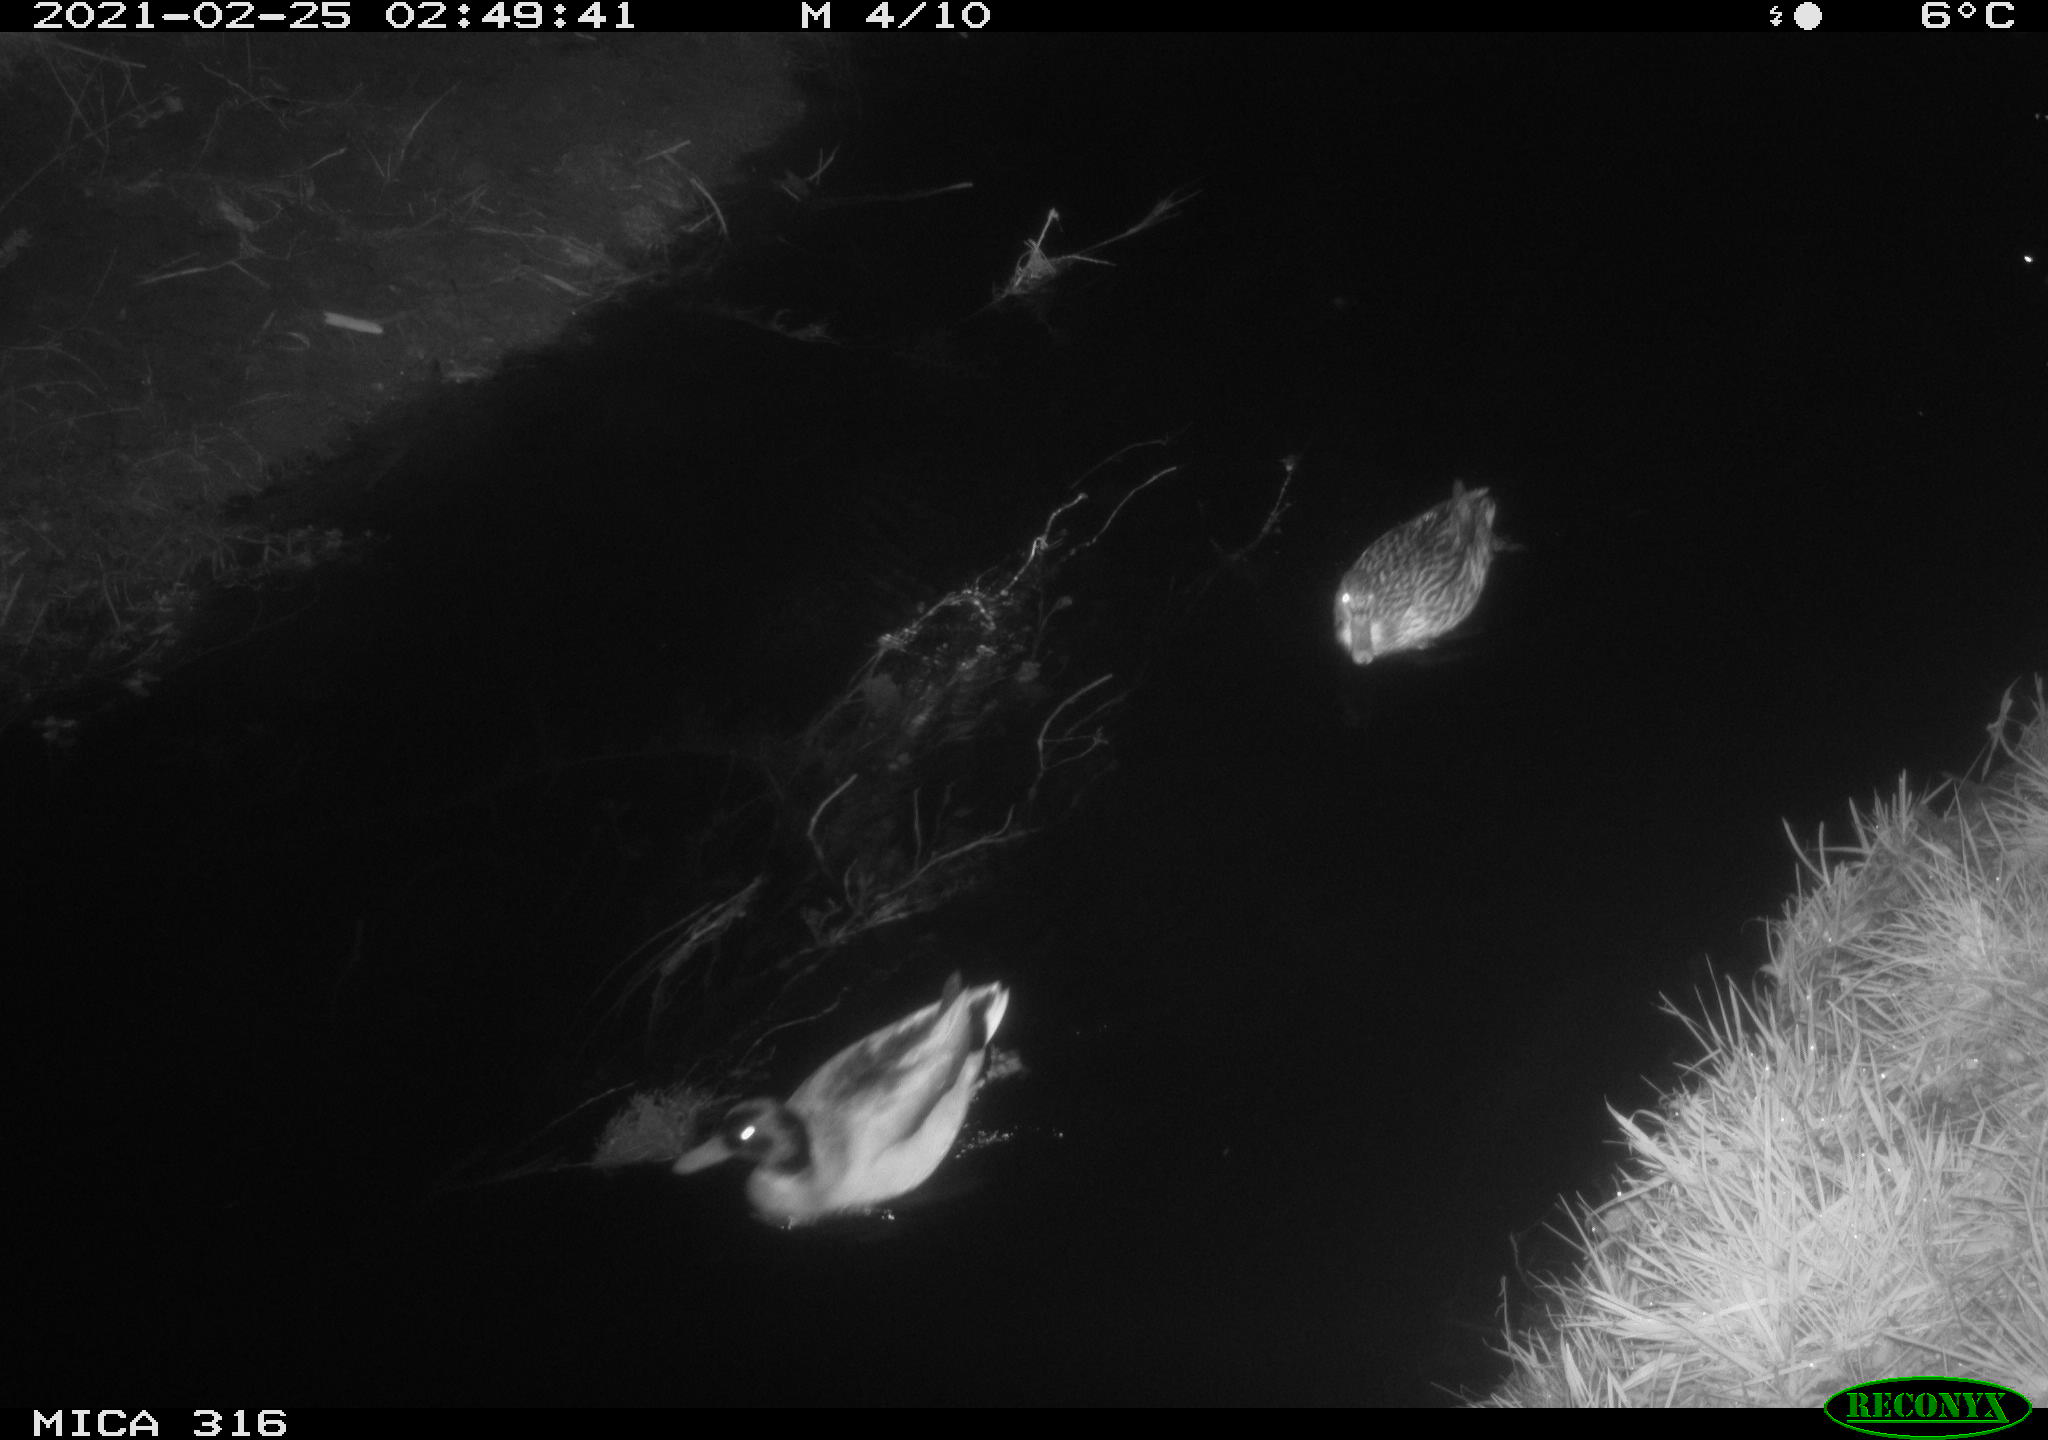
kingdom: Animalia
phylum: Chordata
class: Aves
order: Anseriformes
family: Anatidae
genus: Anas
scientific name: Anas platyrhynchos
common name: Mallard
